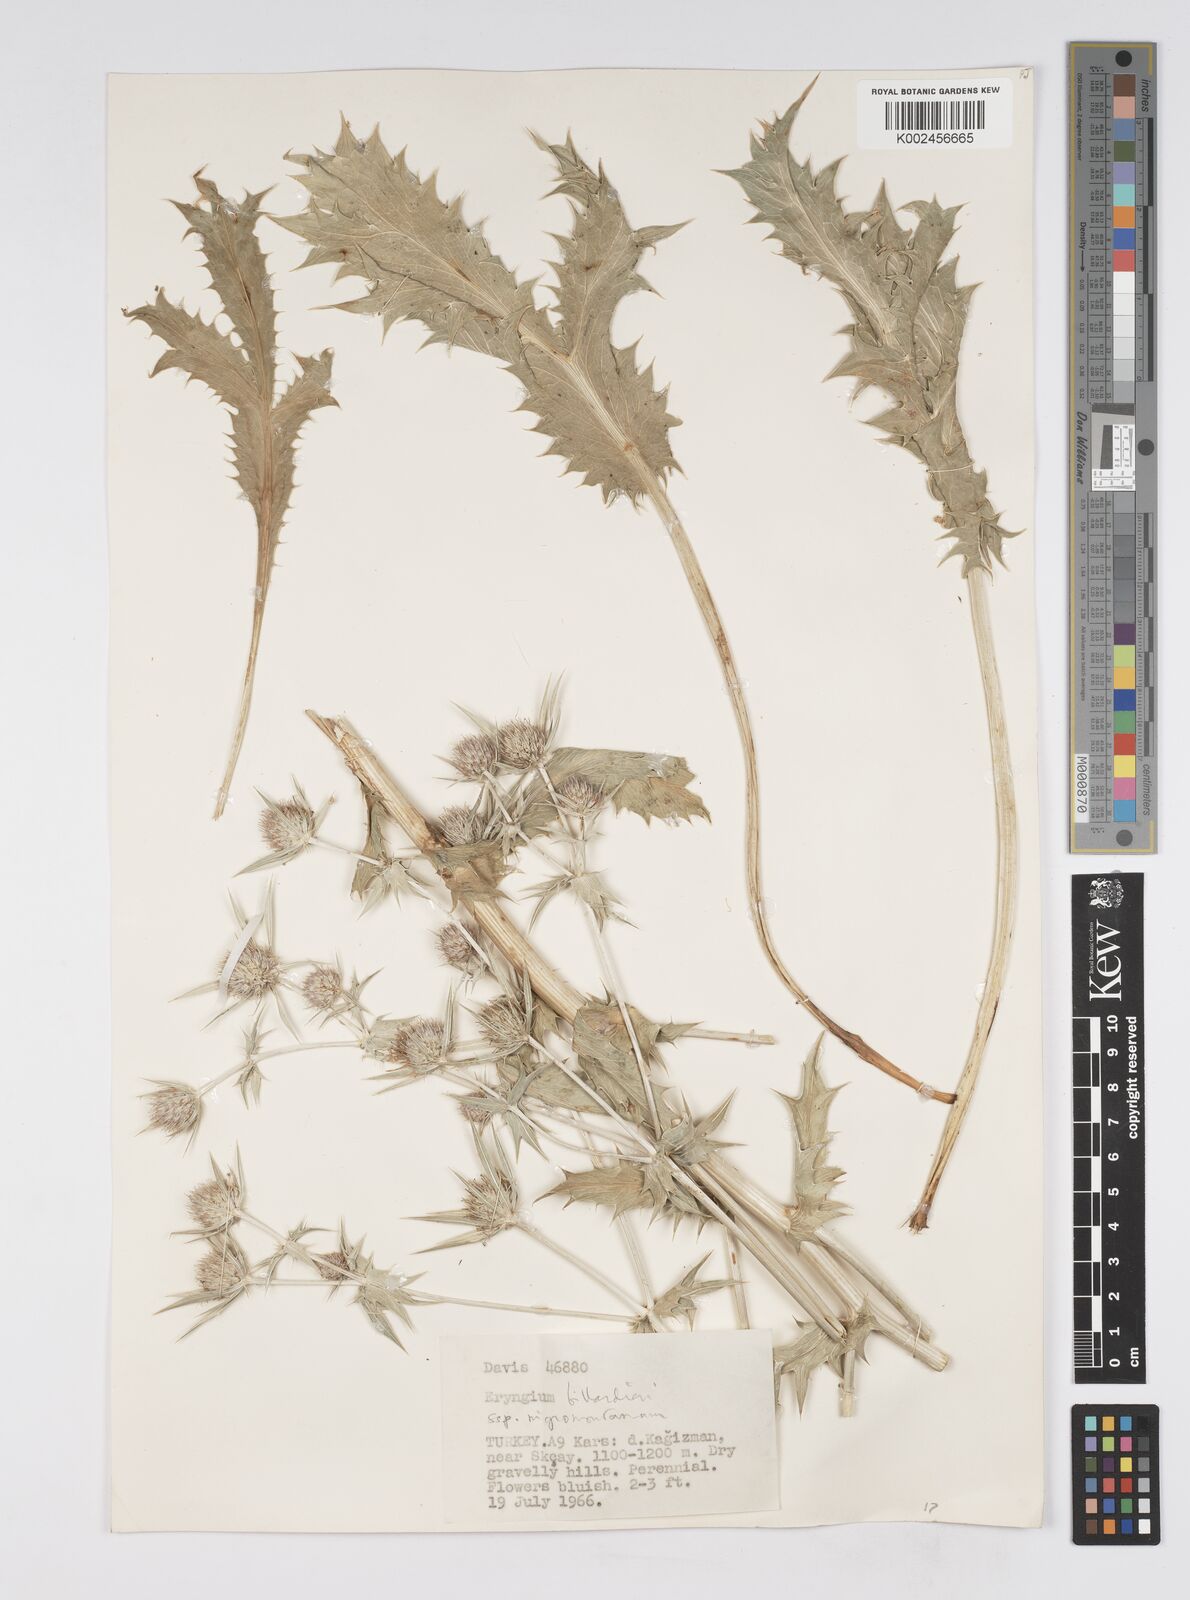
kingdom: Plantae
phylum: Tracheophyta
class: Magnoliopsida
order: Apiales
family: Apiaceae
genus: Eryngium
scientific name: Eryngium billardierei
